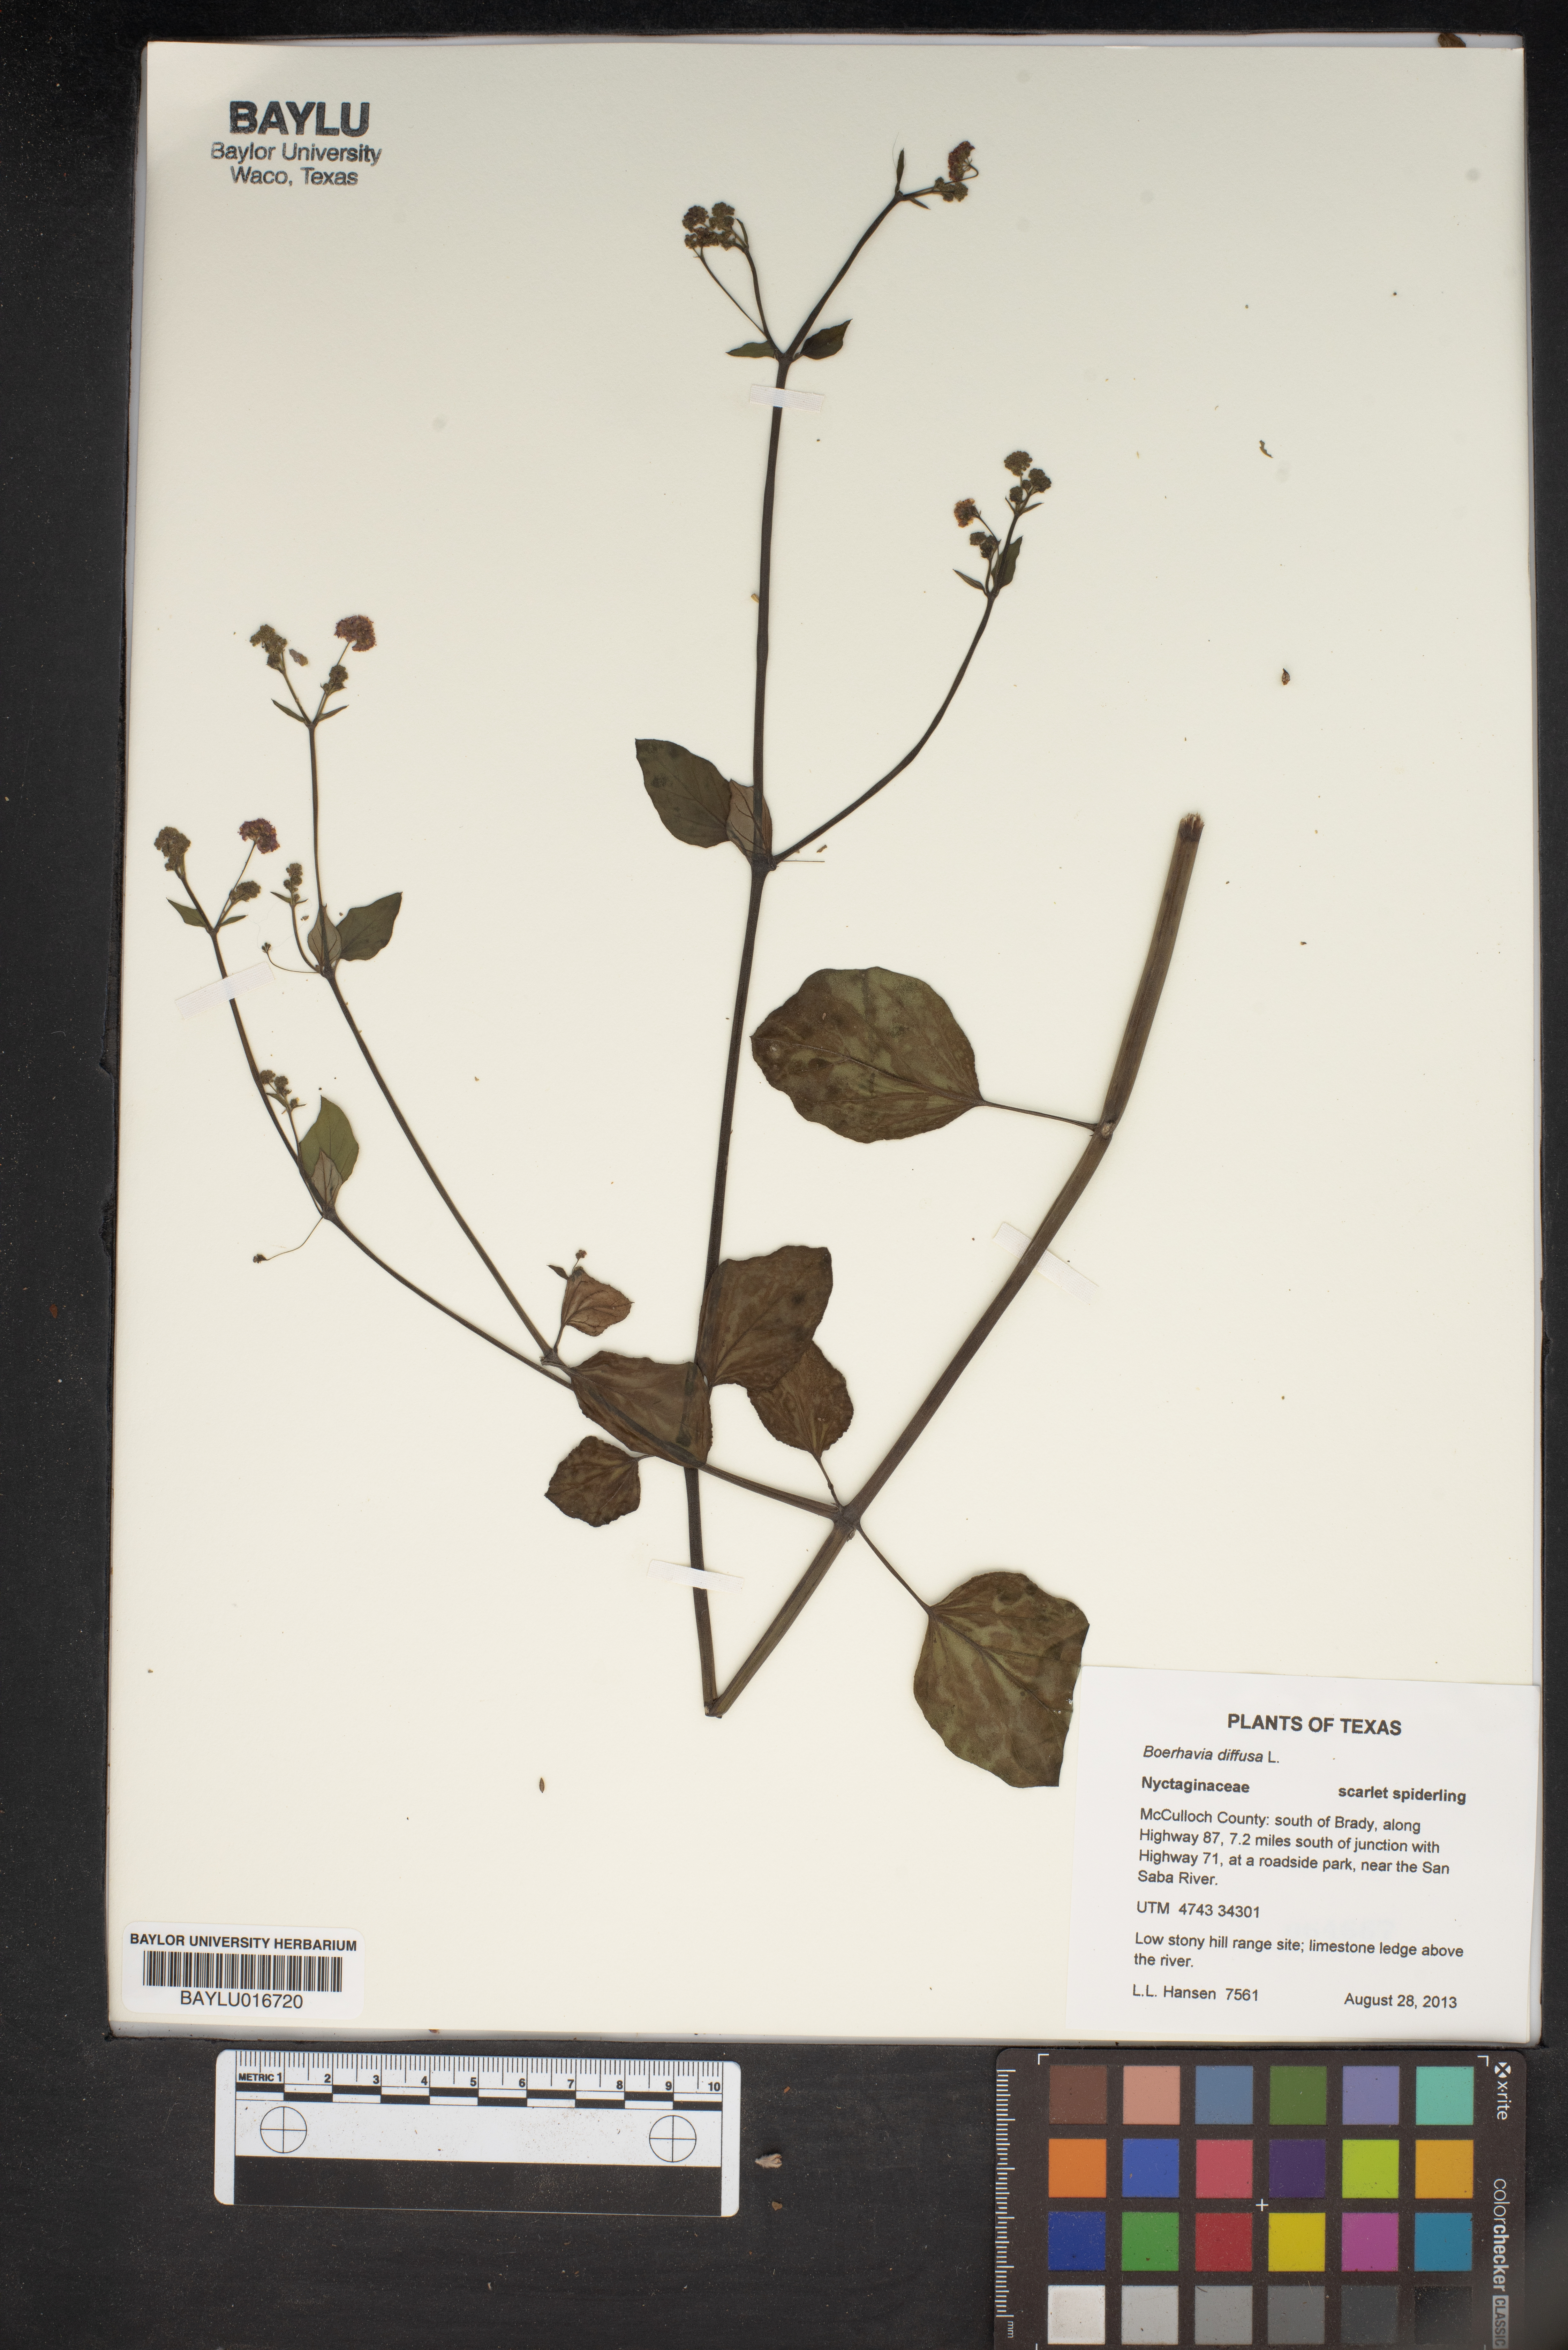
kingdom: Plantae
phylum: Tracheophyta
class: Magnoliopsida
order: Caryophyllales
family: Nyctaginaceae
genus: Boerhavia
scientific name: Boerhavia diffusa
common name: Red spiderling
